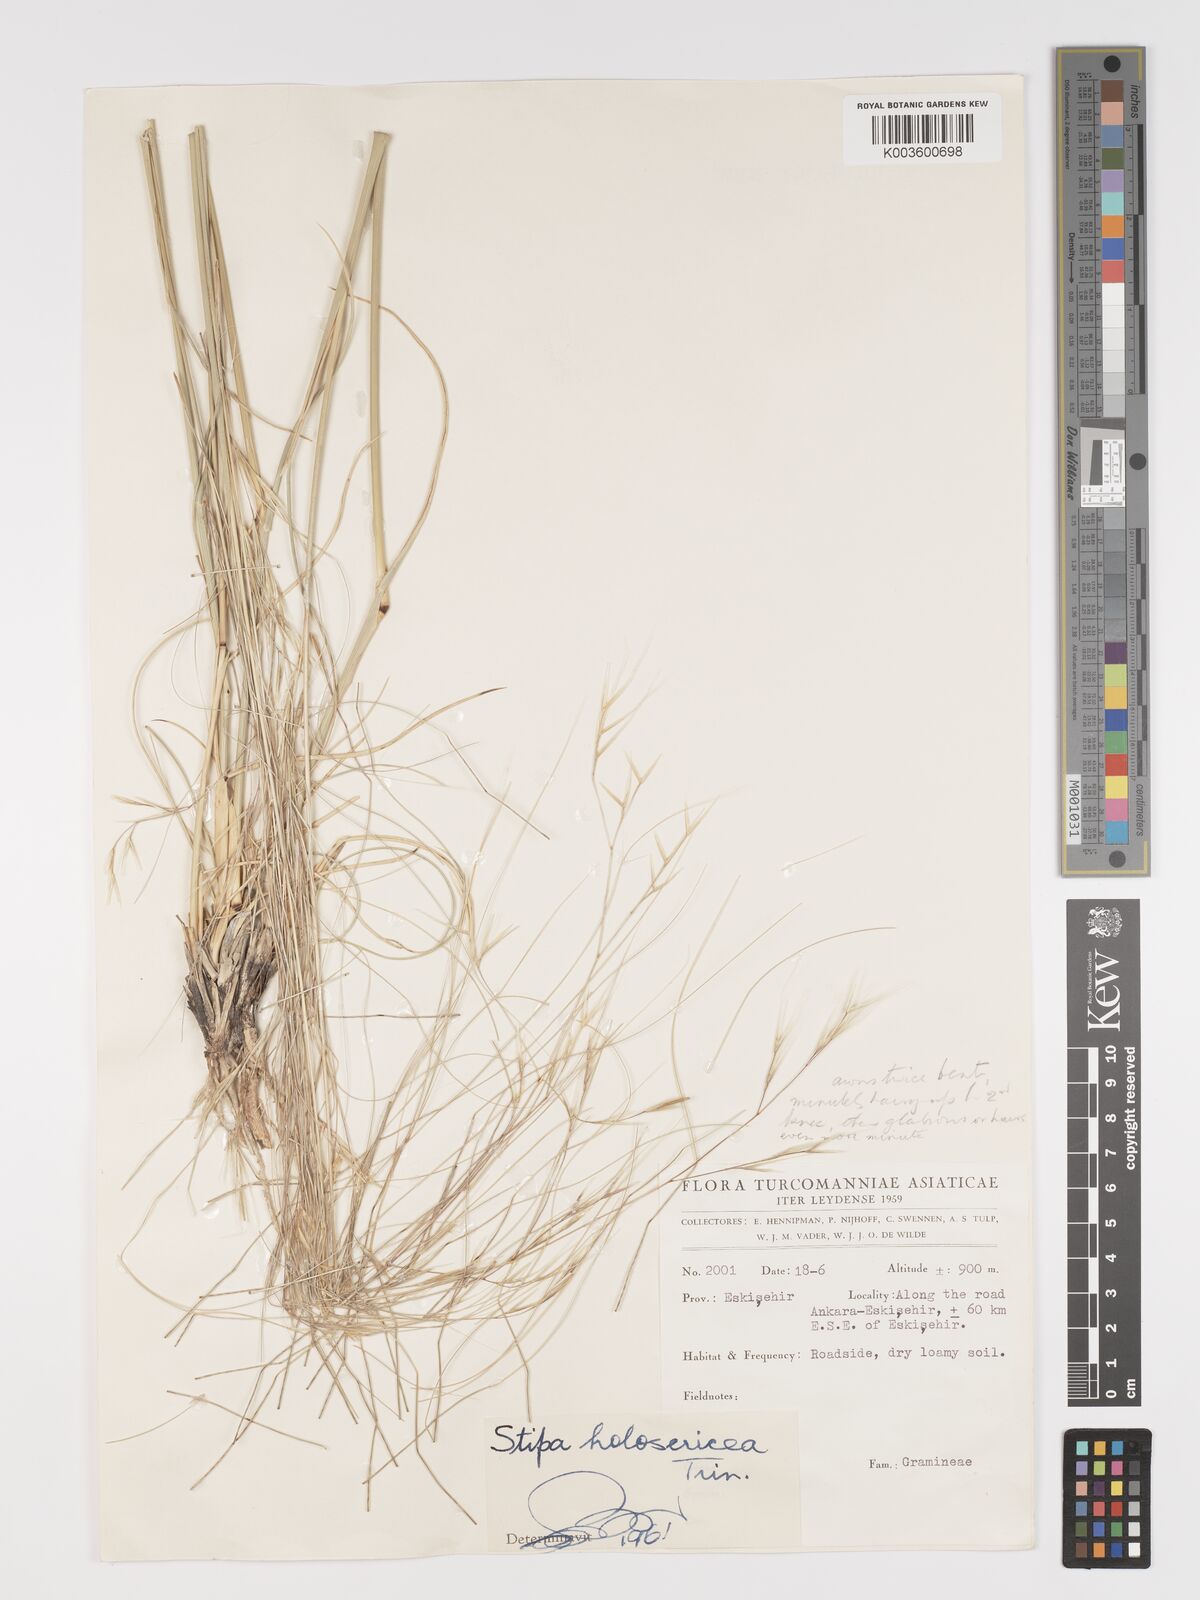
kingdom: Plantae
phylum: Tracheophyta
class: Liliopsida
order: Poales
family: Poaceae
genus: Stipa
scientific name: Stipa holosericea
